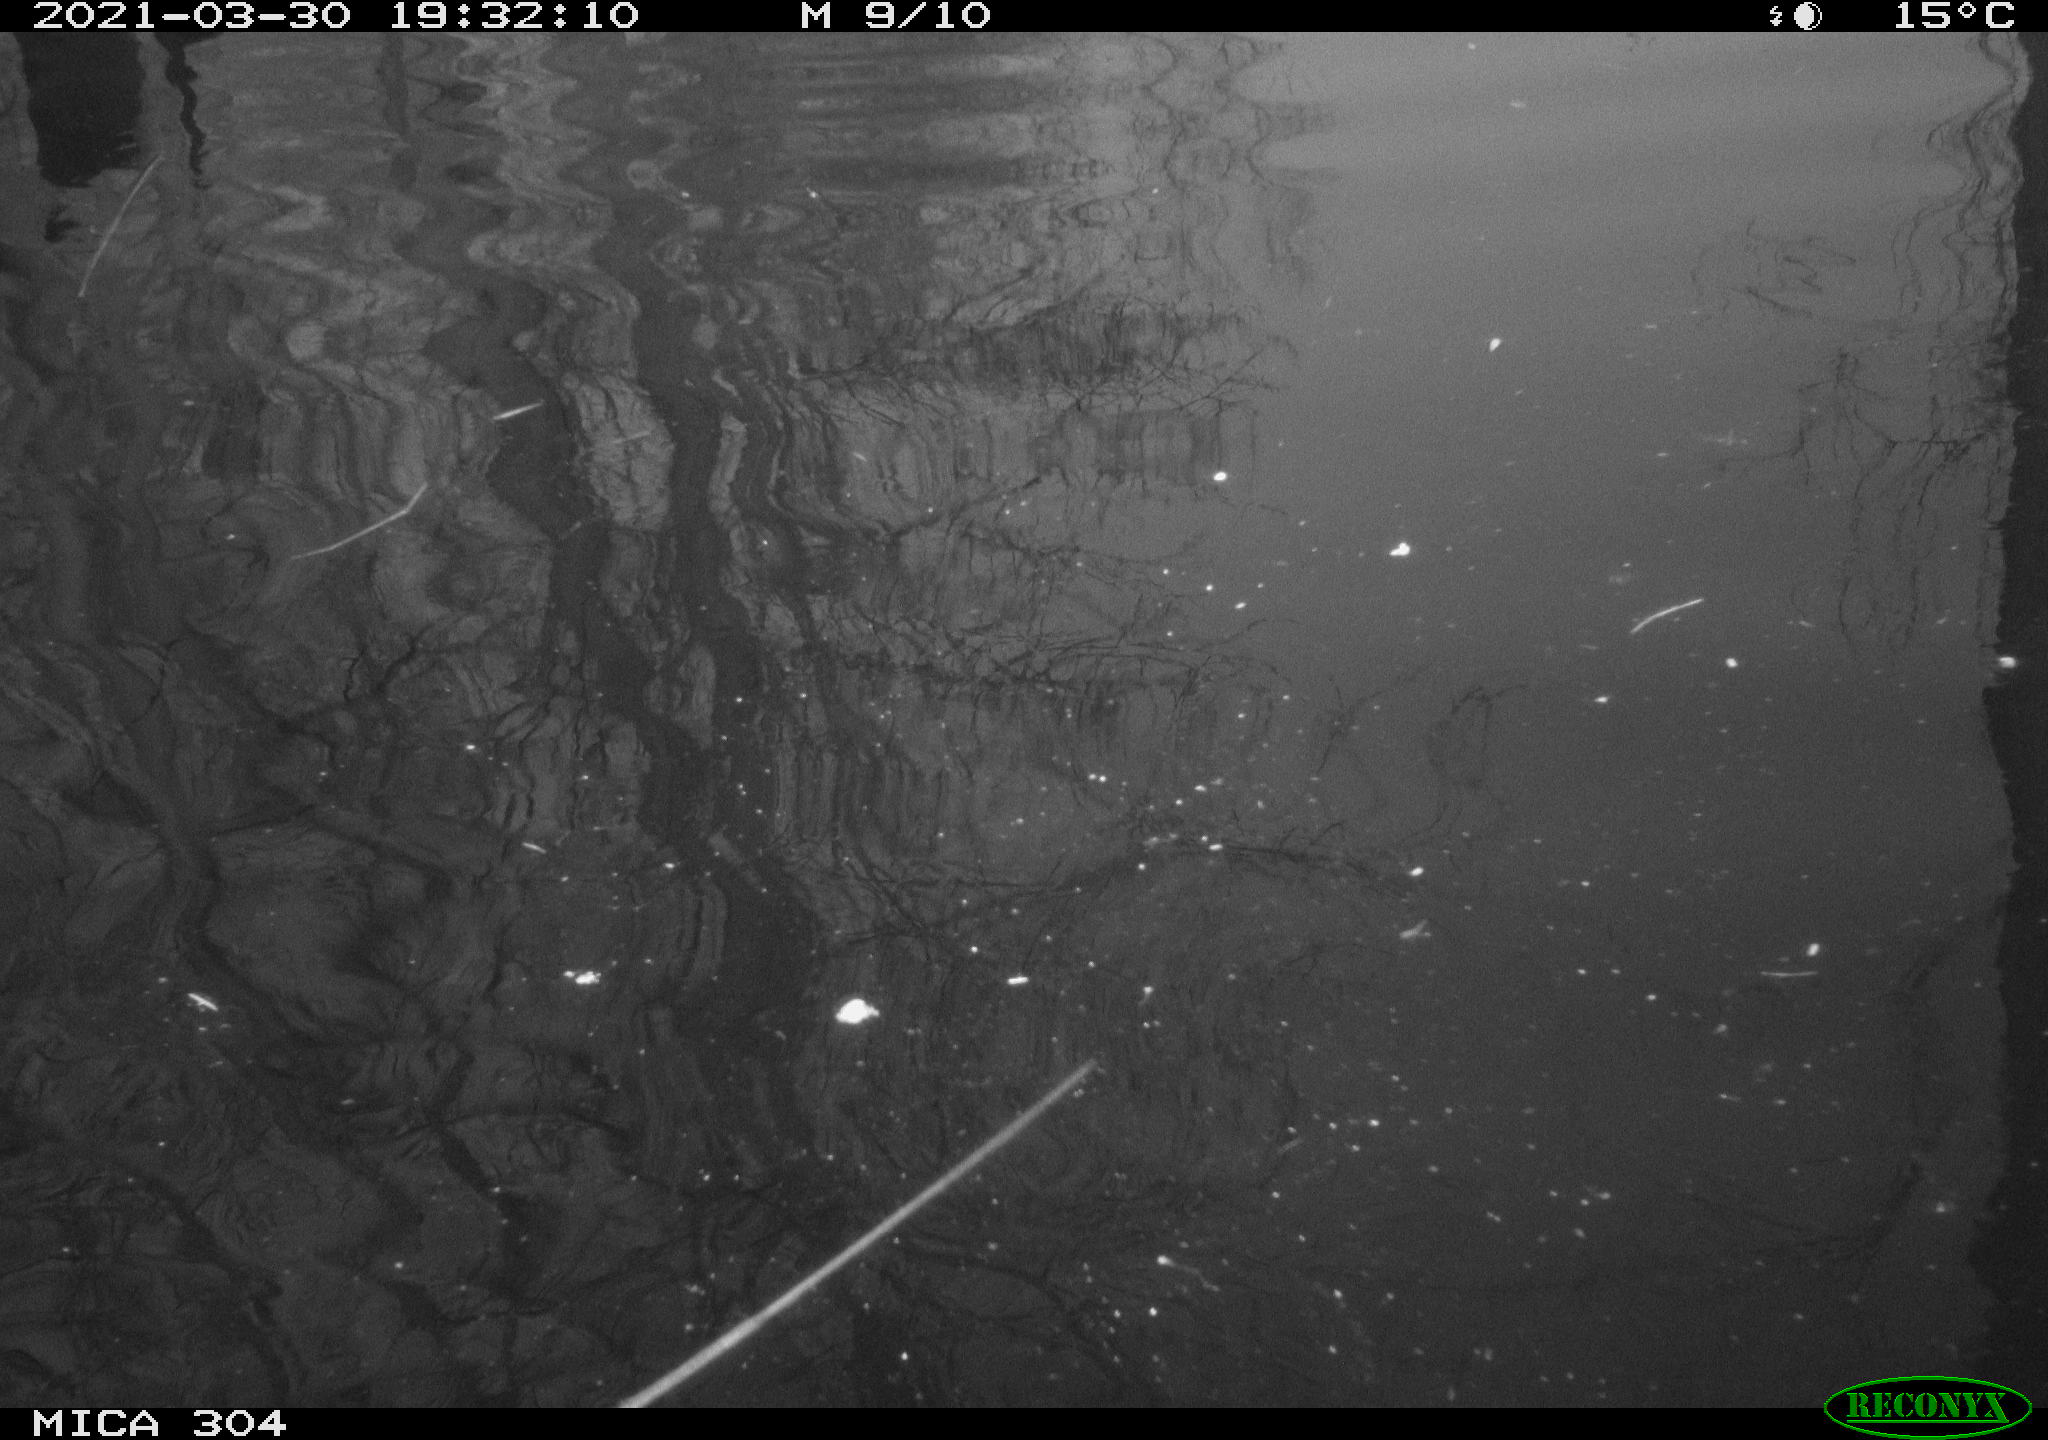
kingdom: Animalia
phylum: Chordata
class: Aves
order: Anseriformes
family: Anatidae
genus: Anas
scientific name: Anas platyrhynchos
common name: Mallard
